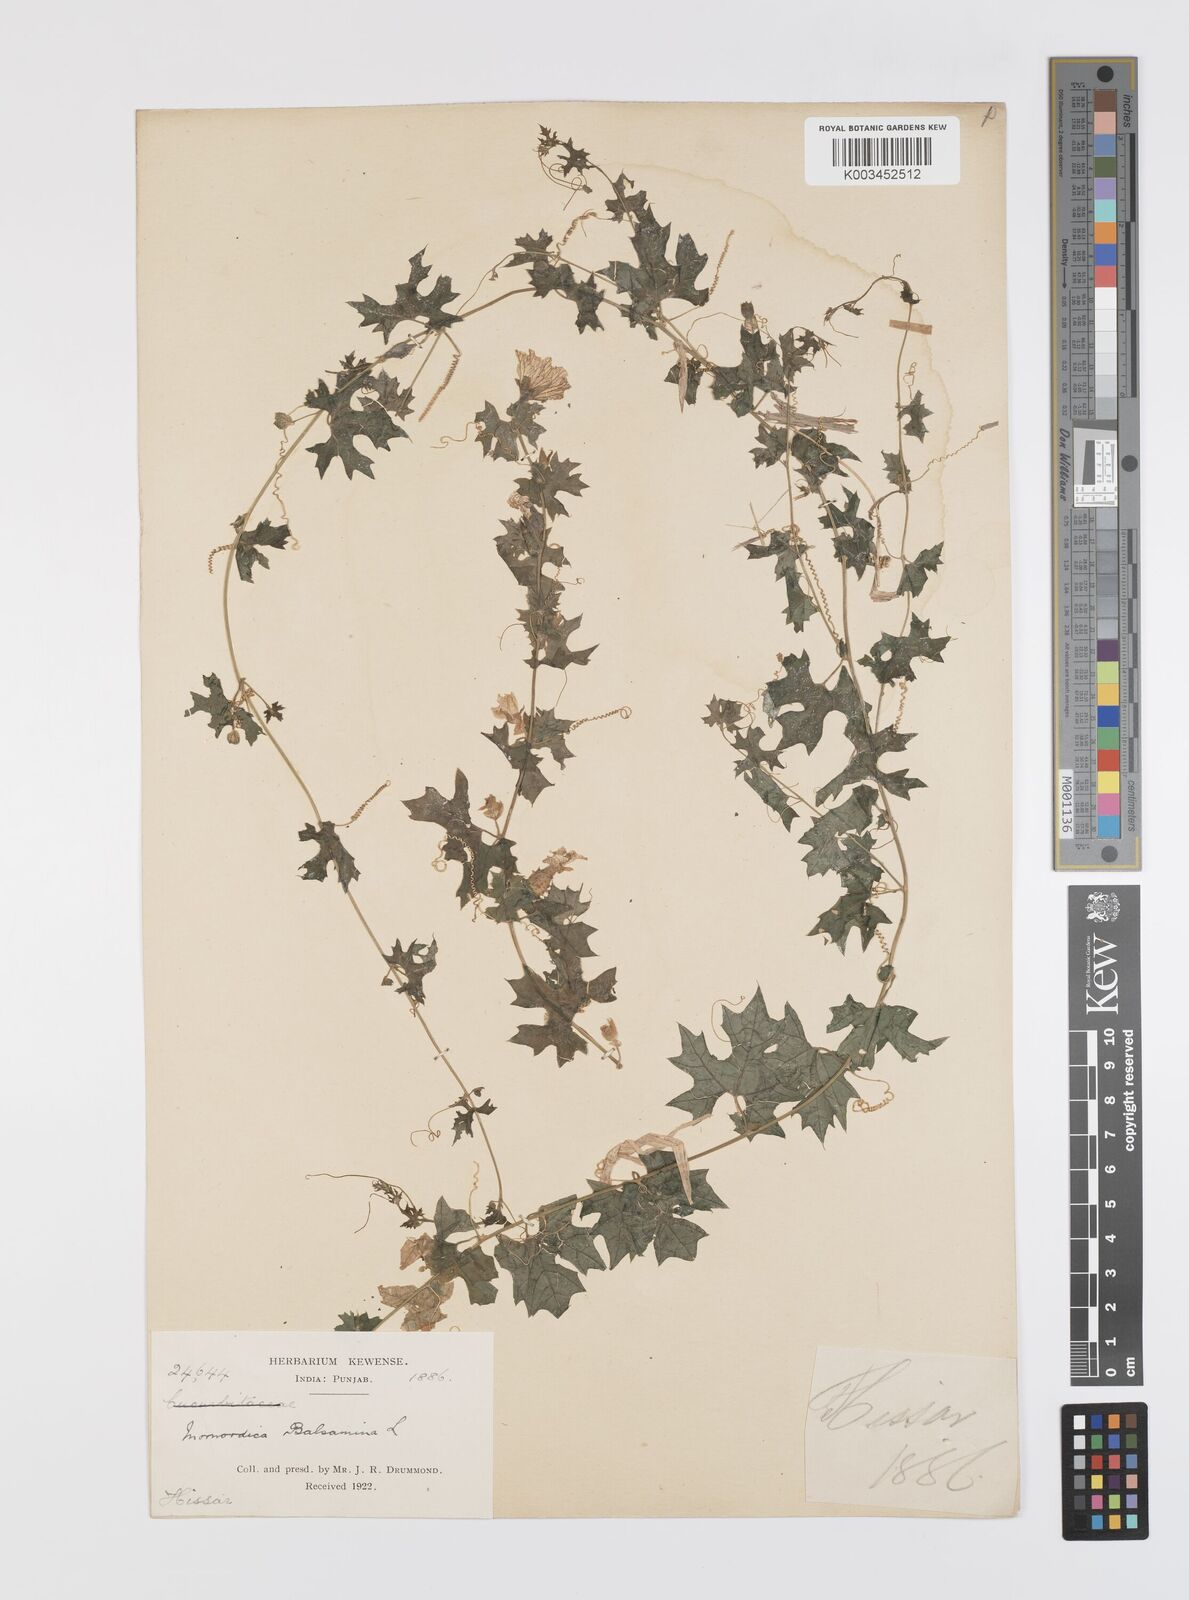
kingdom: Plantae
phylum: Tracheophyta
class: Magnoliopsida
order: Cucurbitales
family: Cucurbitaceae
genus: Momordica
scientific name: Momordica balsamina
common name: Southern balsampear
